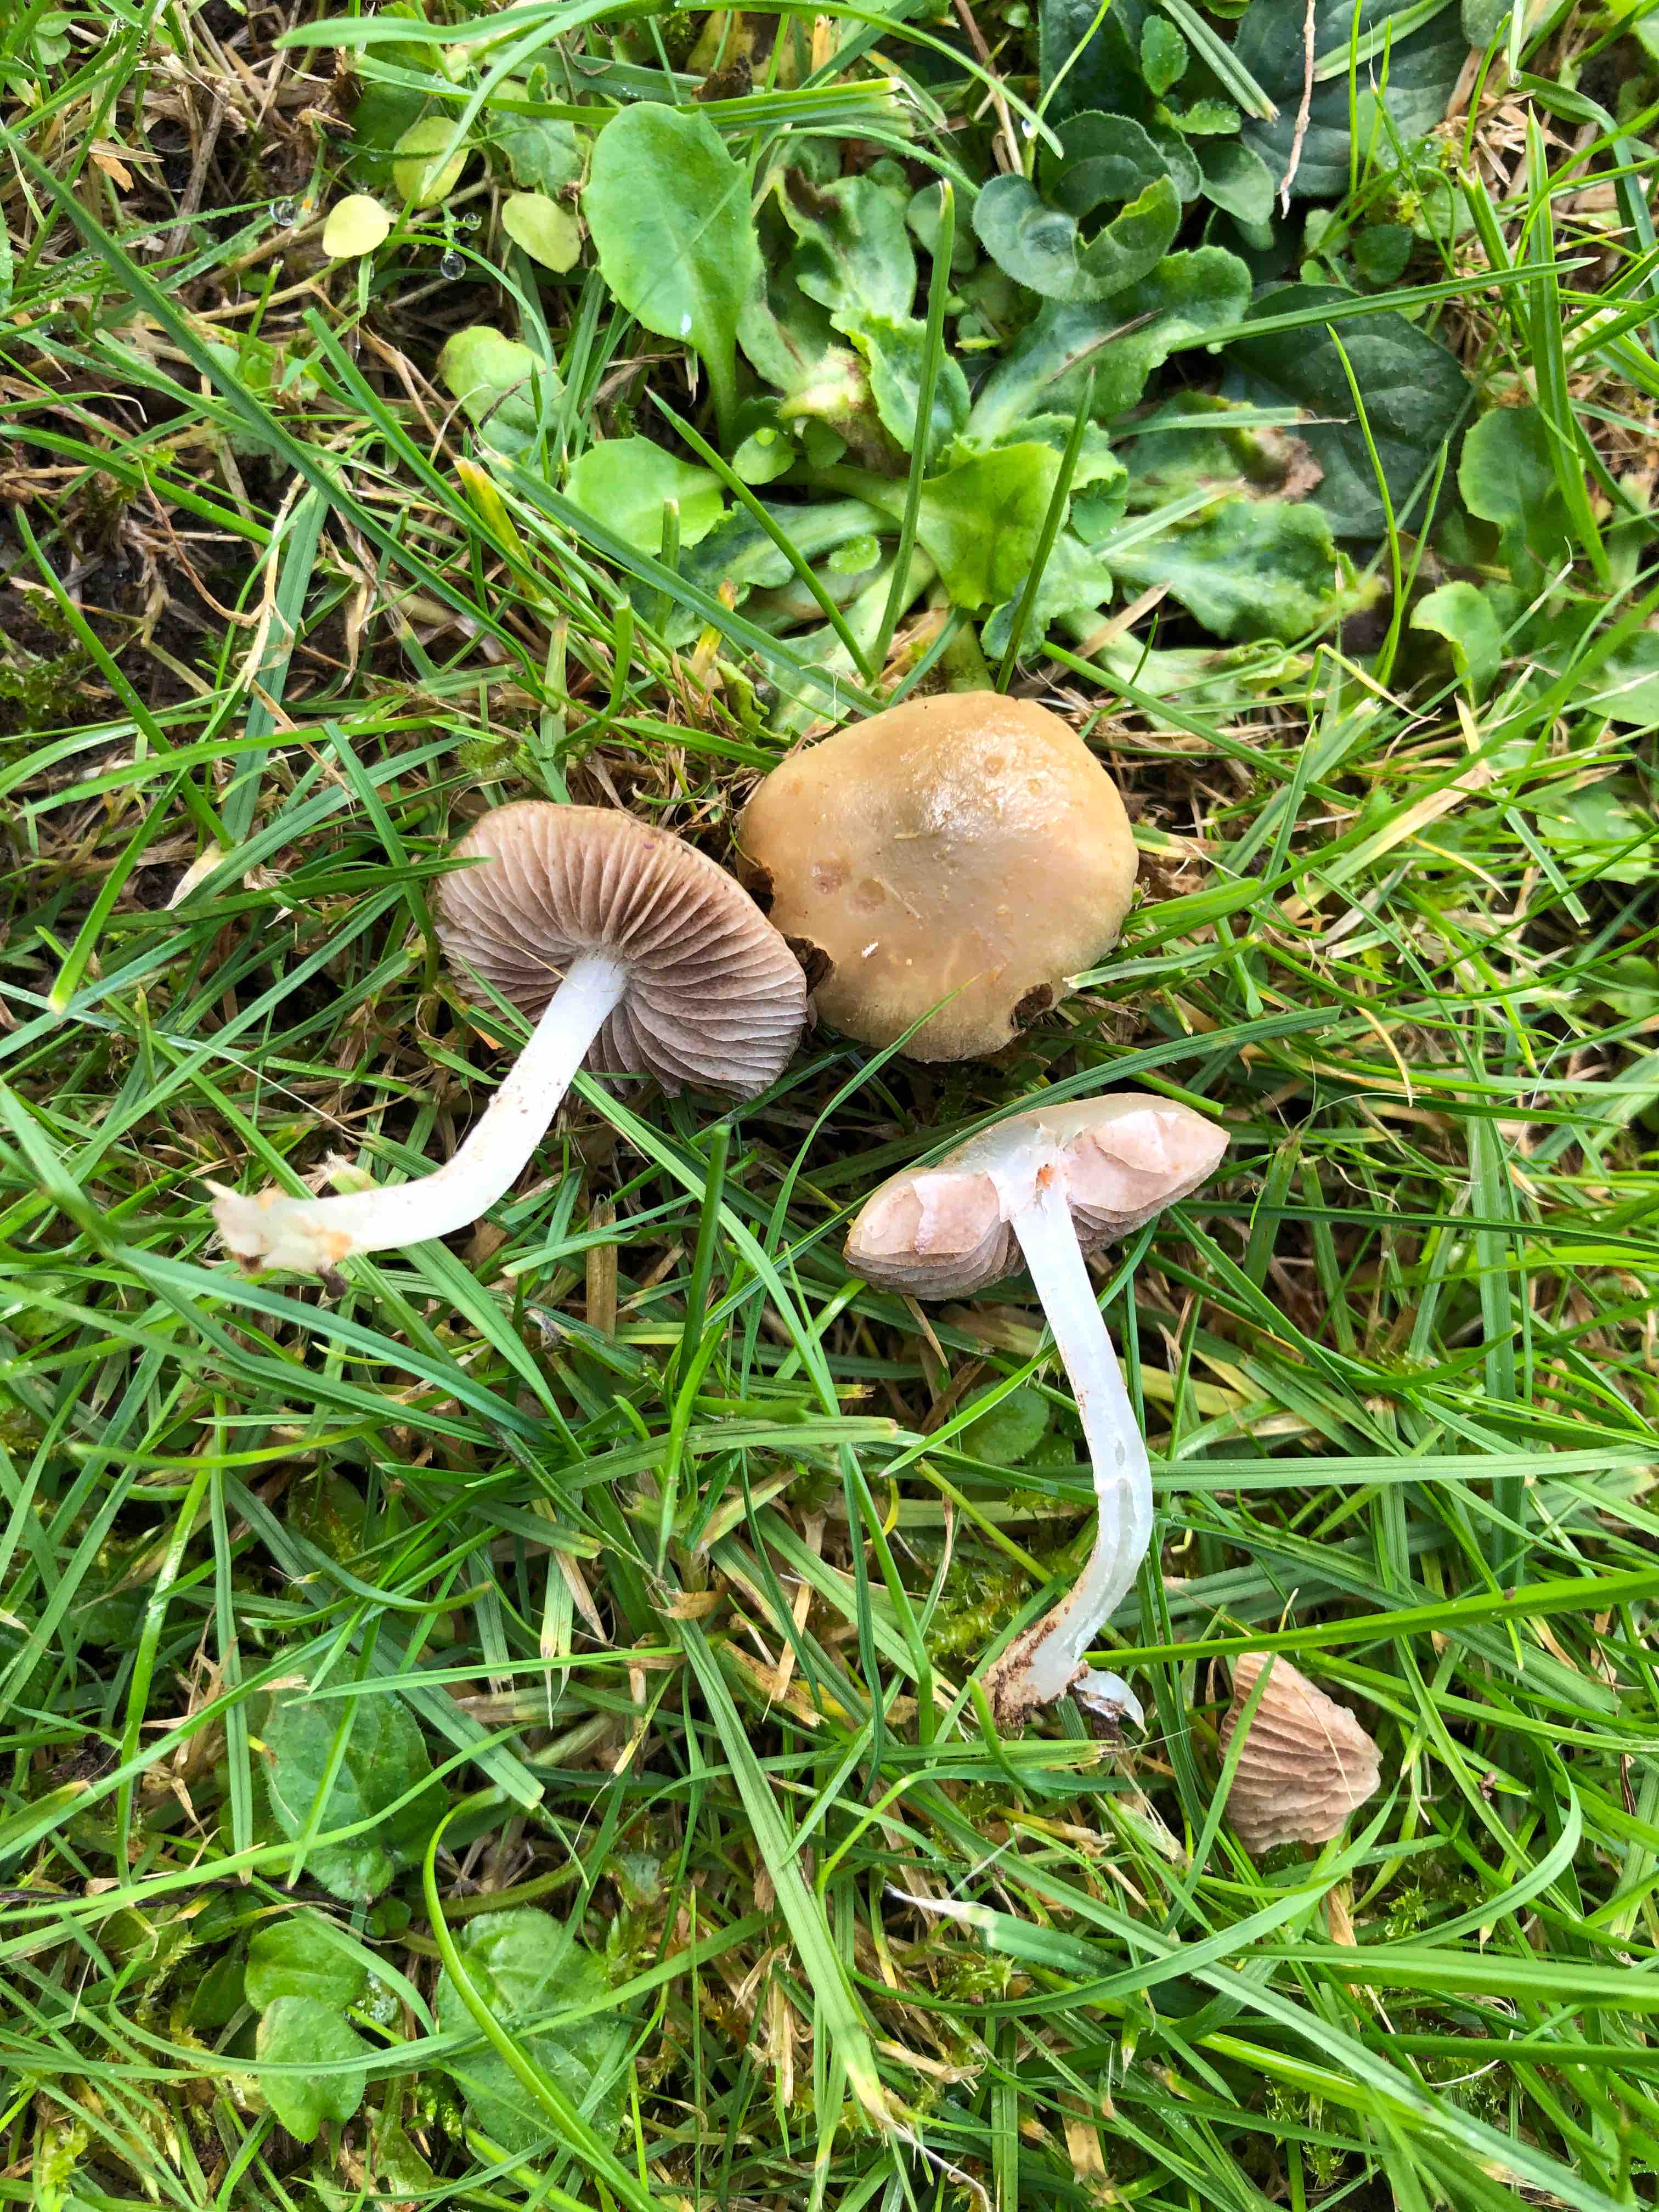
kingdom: Fungi
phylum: Basidiomycota
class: Agaricomycetes
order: Agaricales
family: Strophariaceae
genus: Stropharia
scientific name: Stropharia inuncta
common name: lillabrun bredblad
